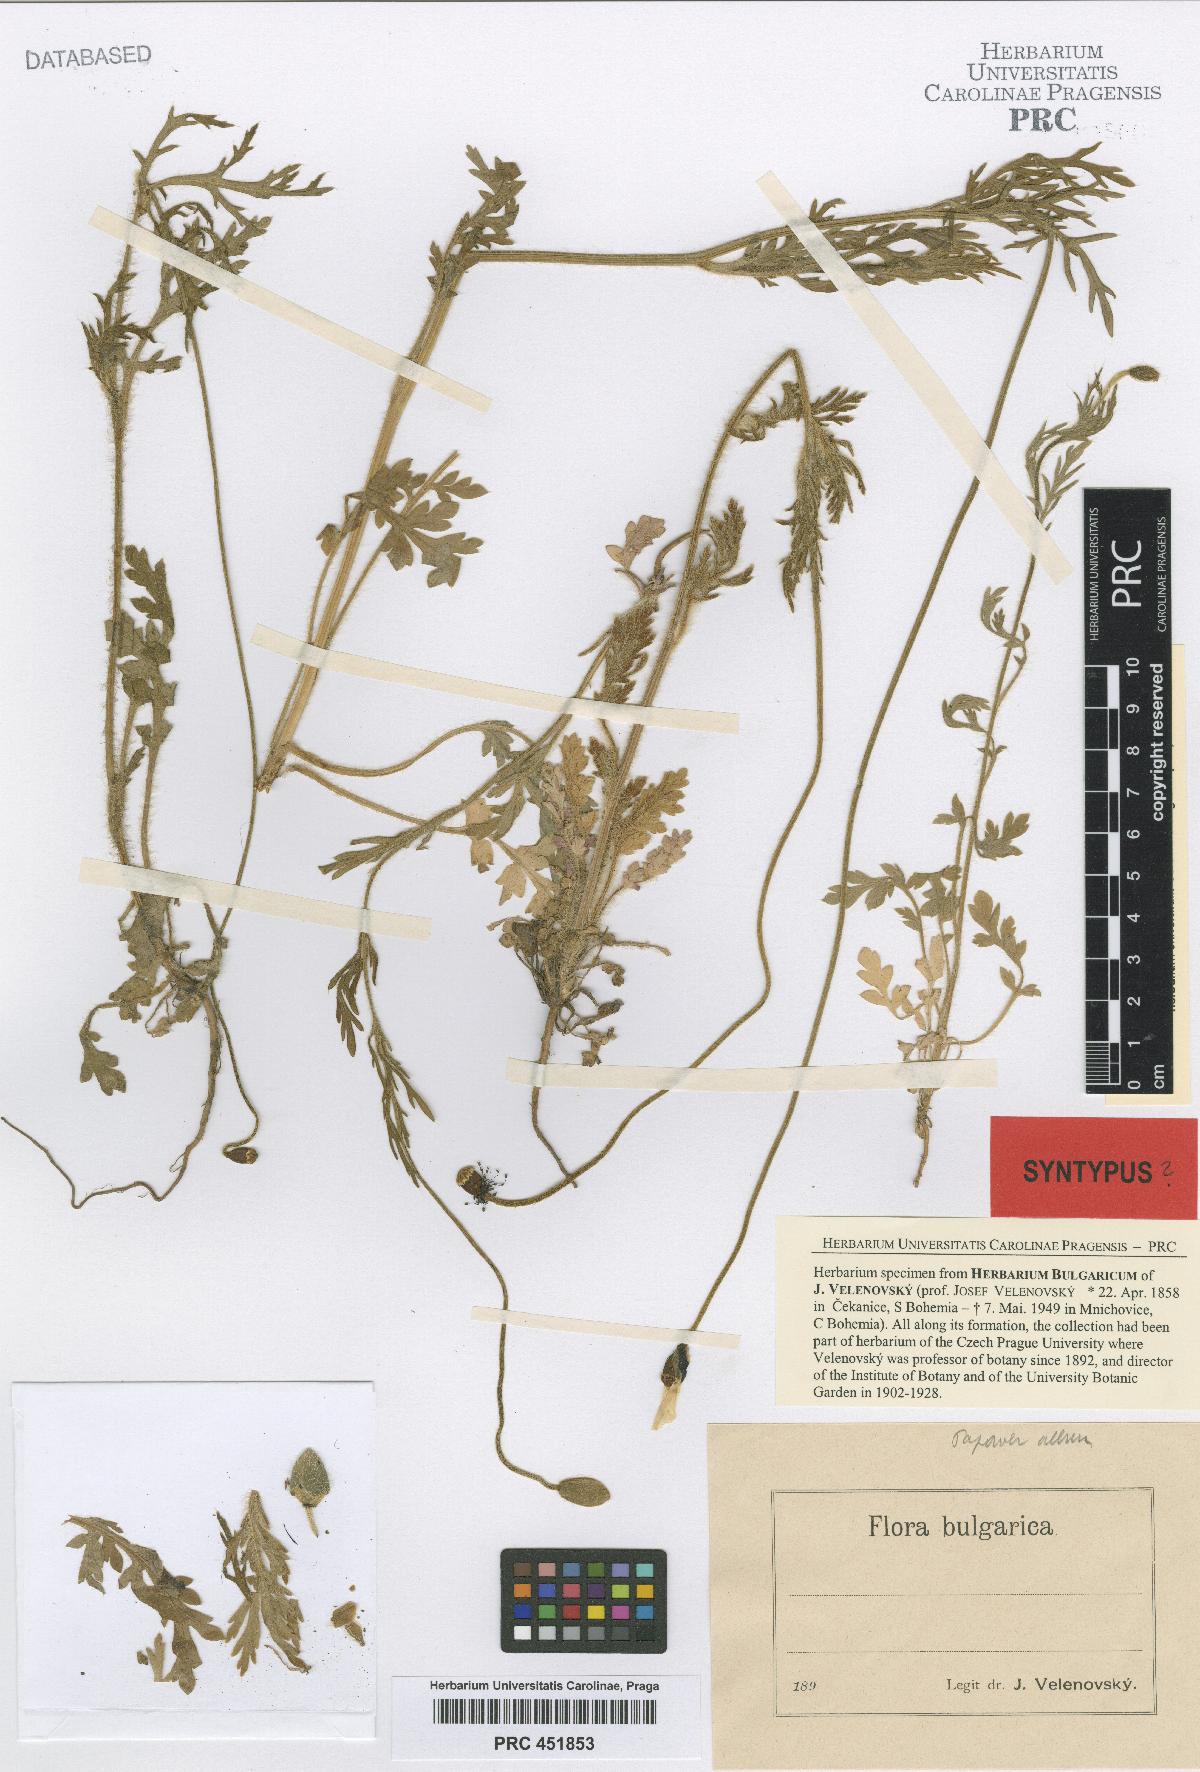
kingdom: Plantae
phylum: Tracheophyta
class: Magnoliopsida
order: Ranunculales
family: Papaveraceae
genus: Papaver
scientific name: Papaver dubium
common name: Long-headed poppy
